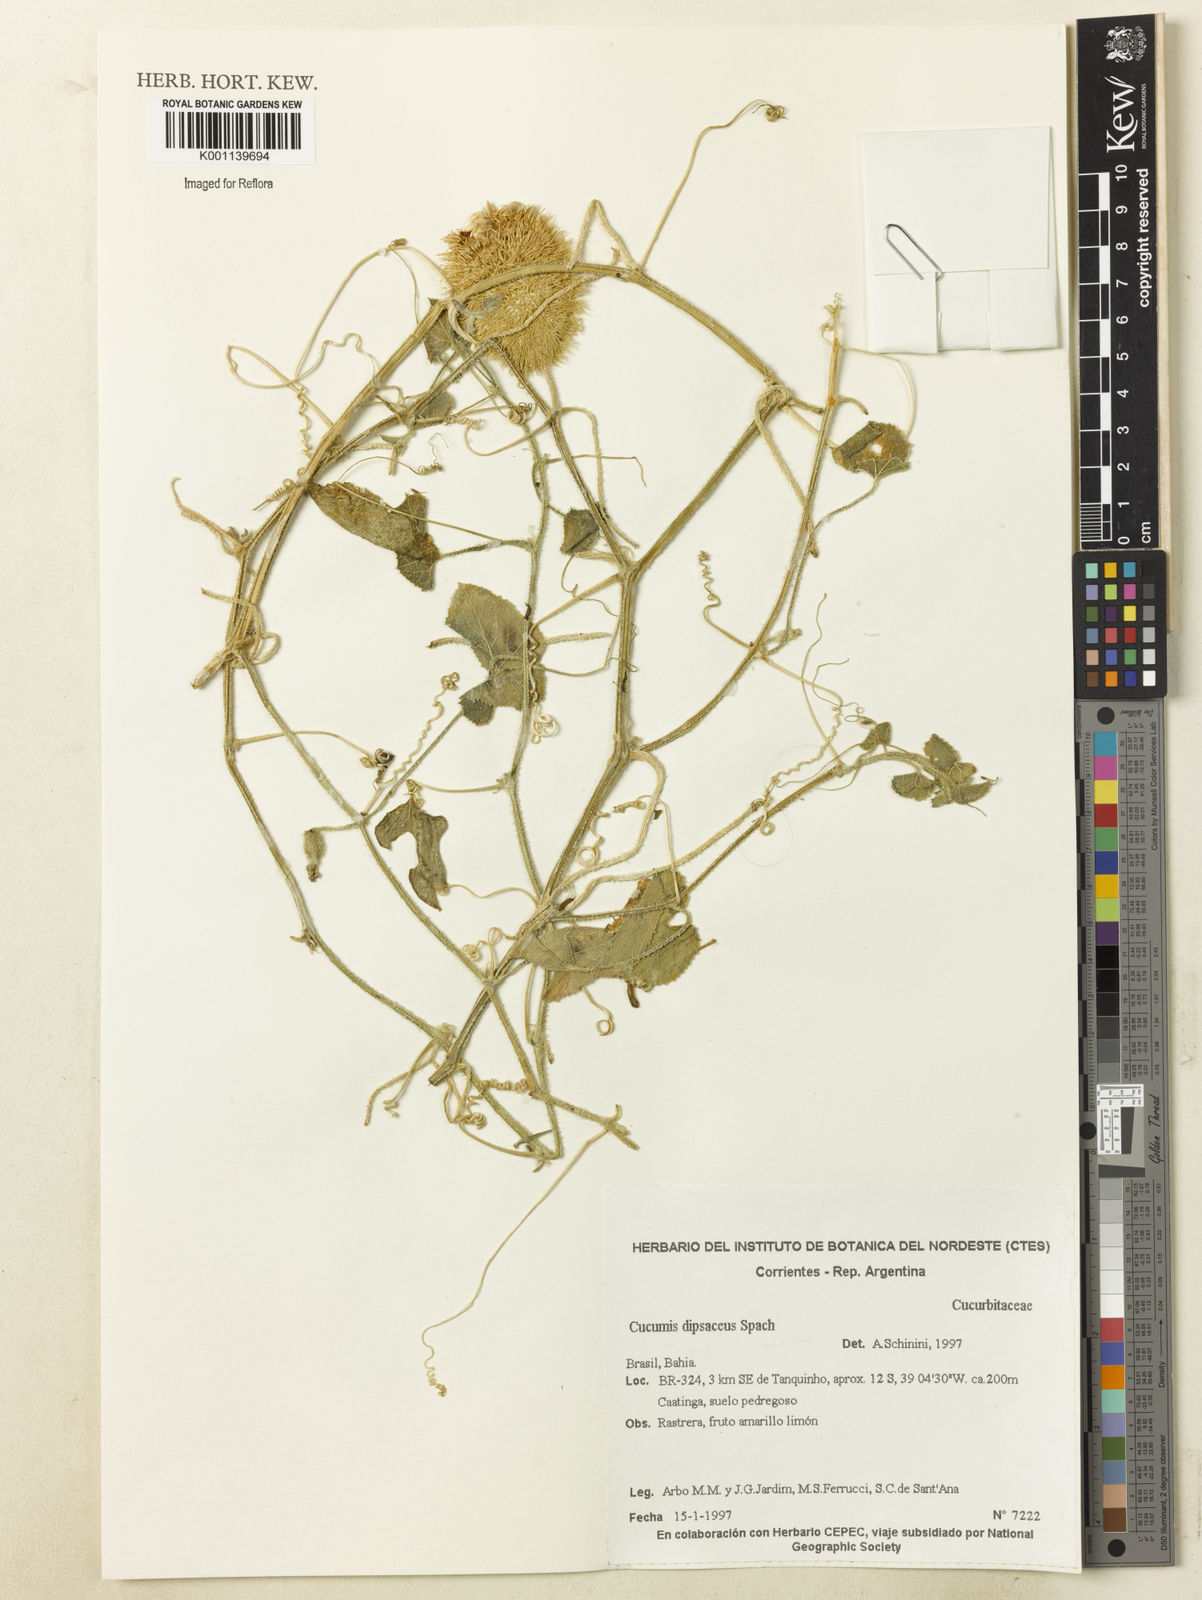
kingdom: Plantae
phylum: Tracheophyta
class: Magnoliopsida
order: Cucurbitales
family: Cucurbitaceae
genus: Cucumis
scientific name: Cucumis
